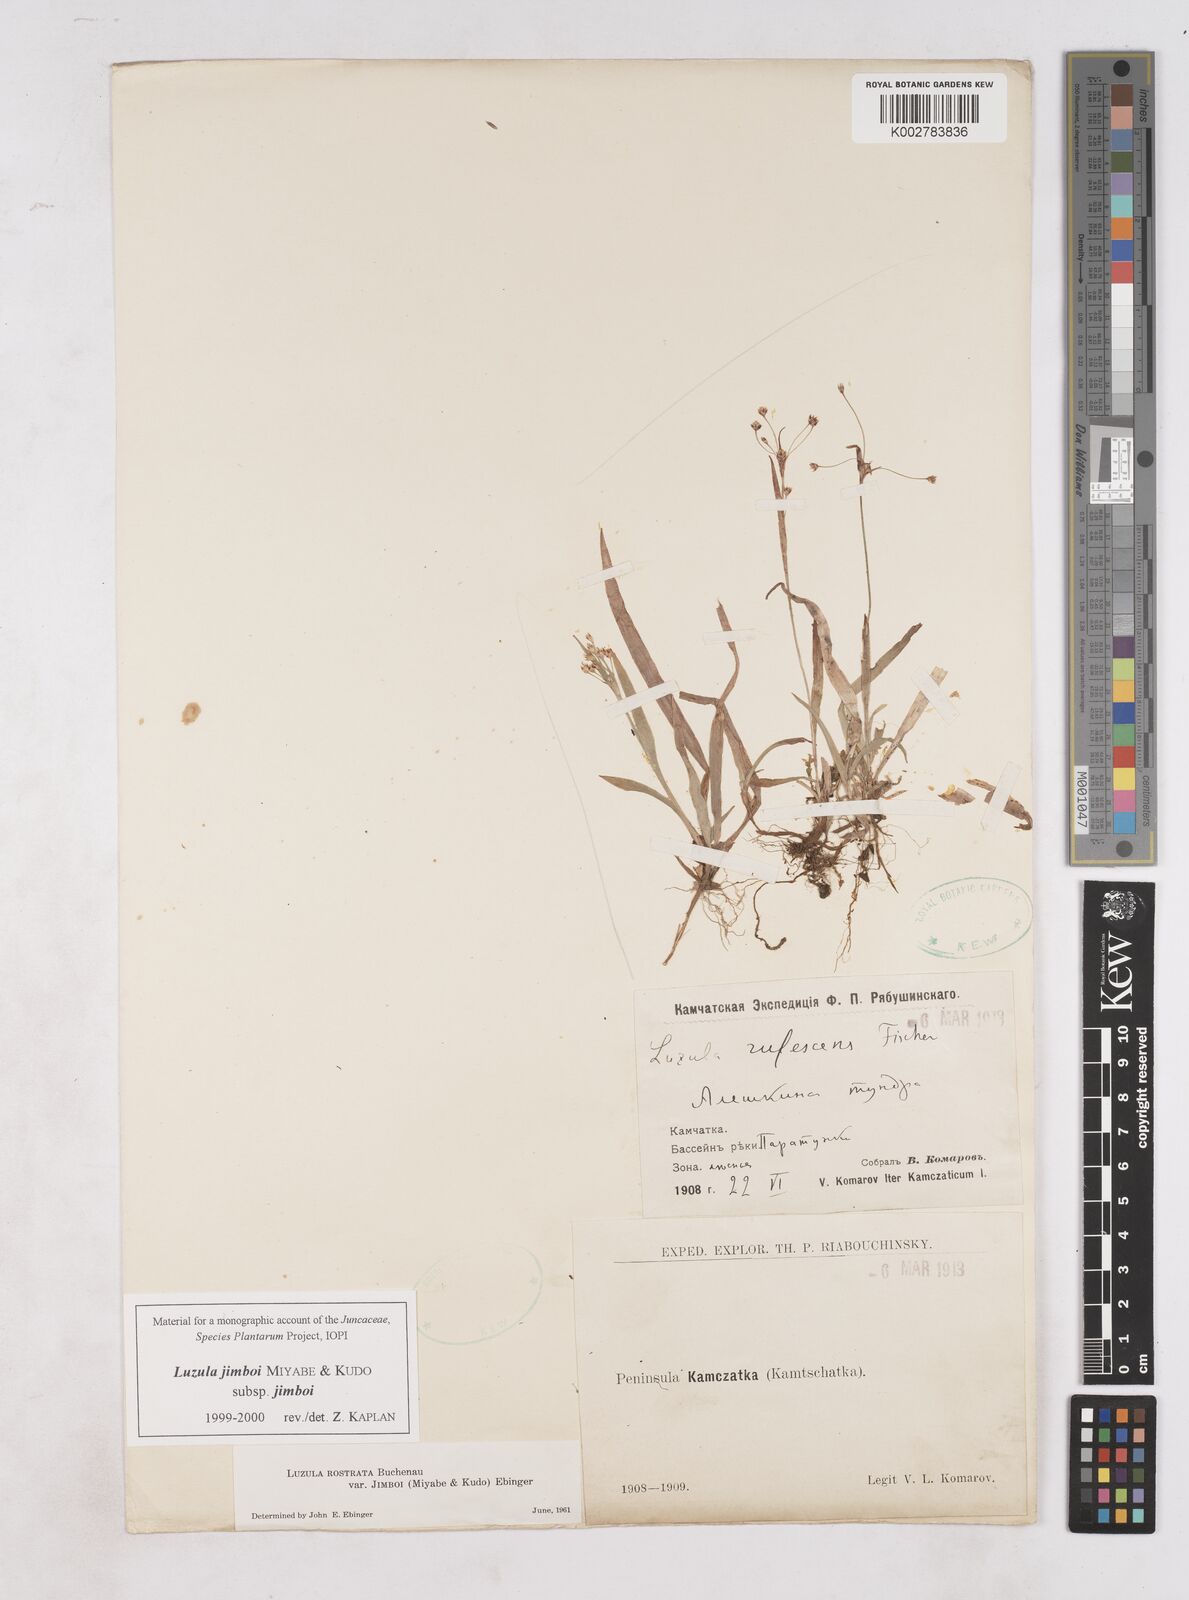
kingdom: Plantae
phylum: Tracheophyta
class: Liliopsida
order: Poales
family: Juncaceae
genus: Luzula
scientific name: Luzula jimboi
